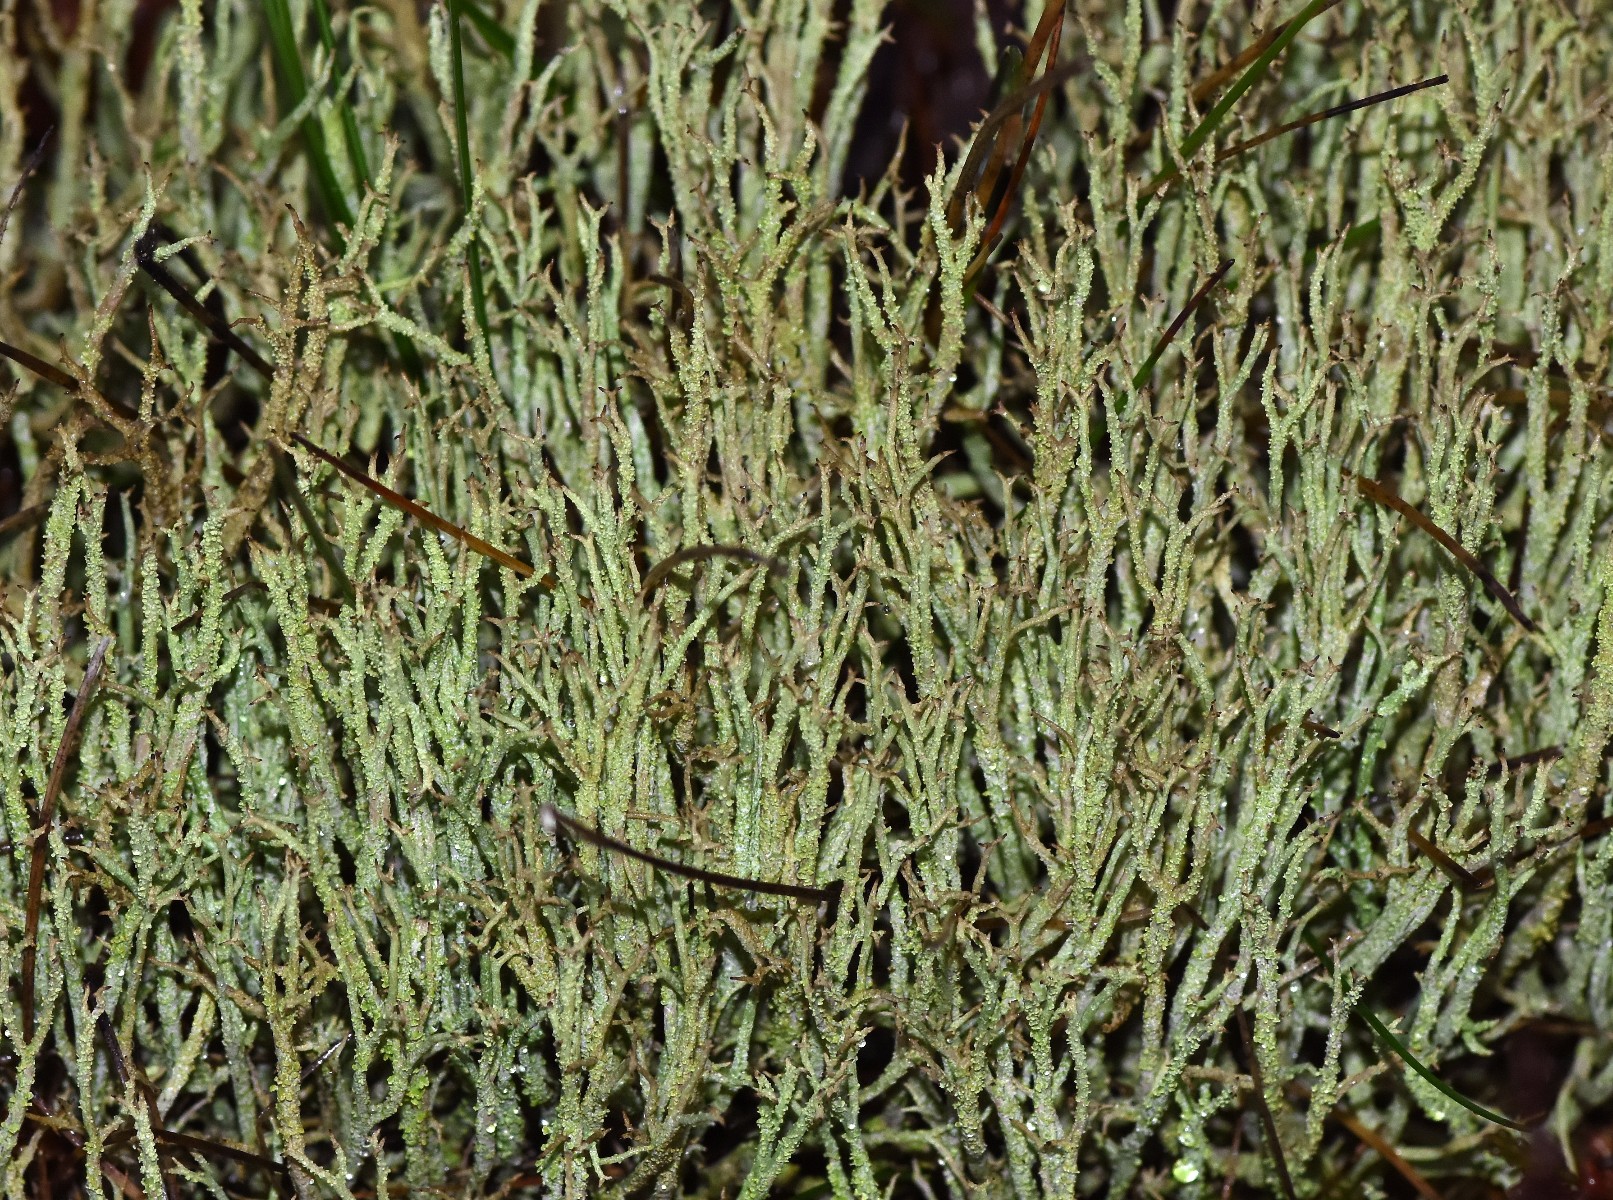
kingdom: Fungi
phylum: Ascomycota
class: Lecanoromycetes
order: Lecanorales
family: Cladoniaceae
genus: Cladonia
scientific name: Cladonia scabriuscula
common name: ru bægerlav
